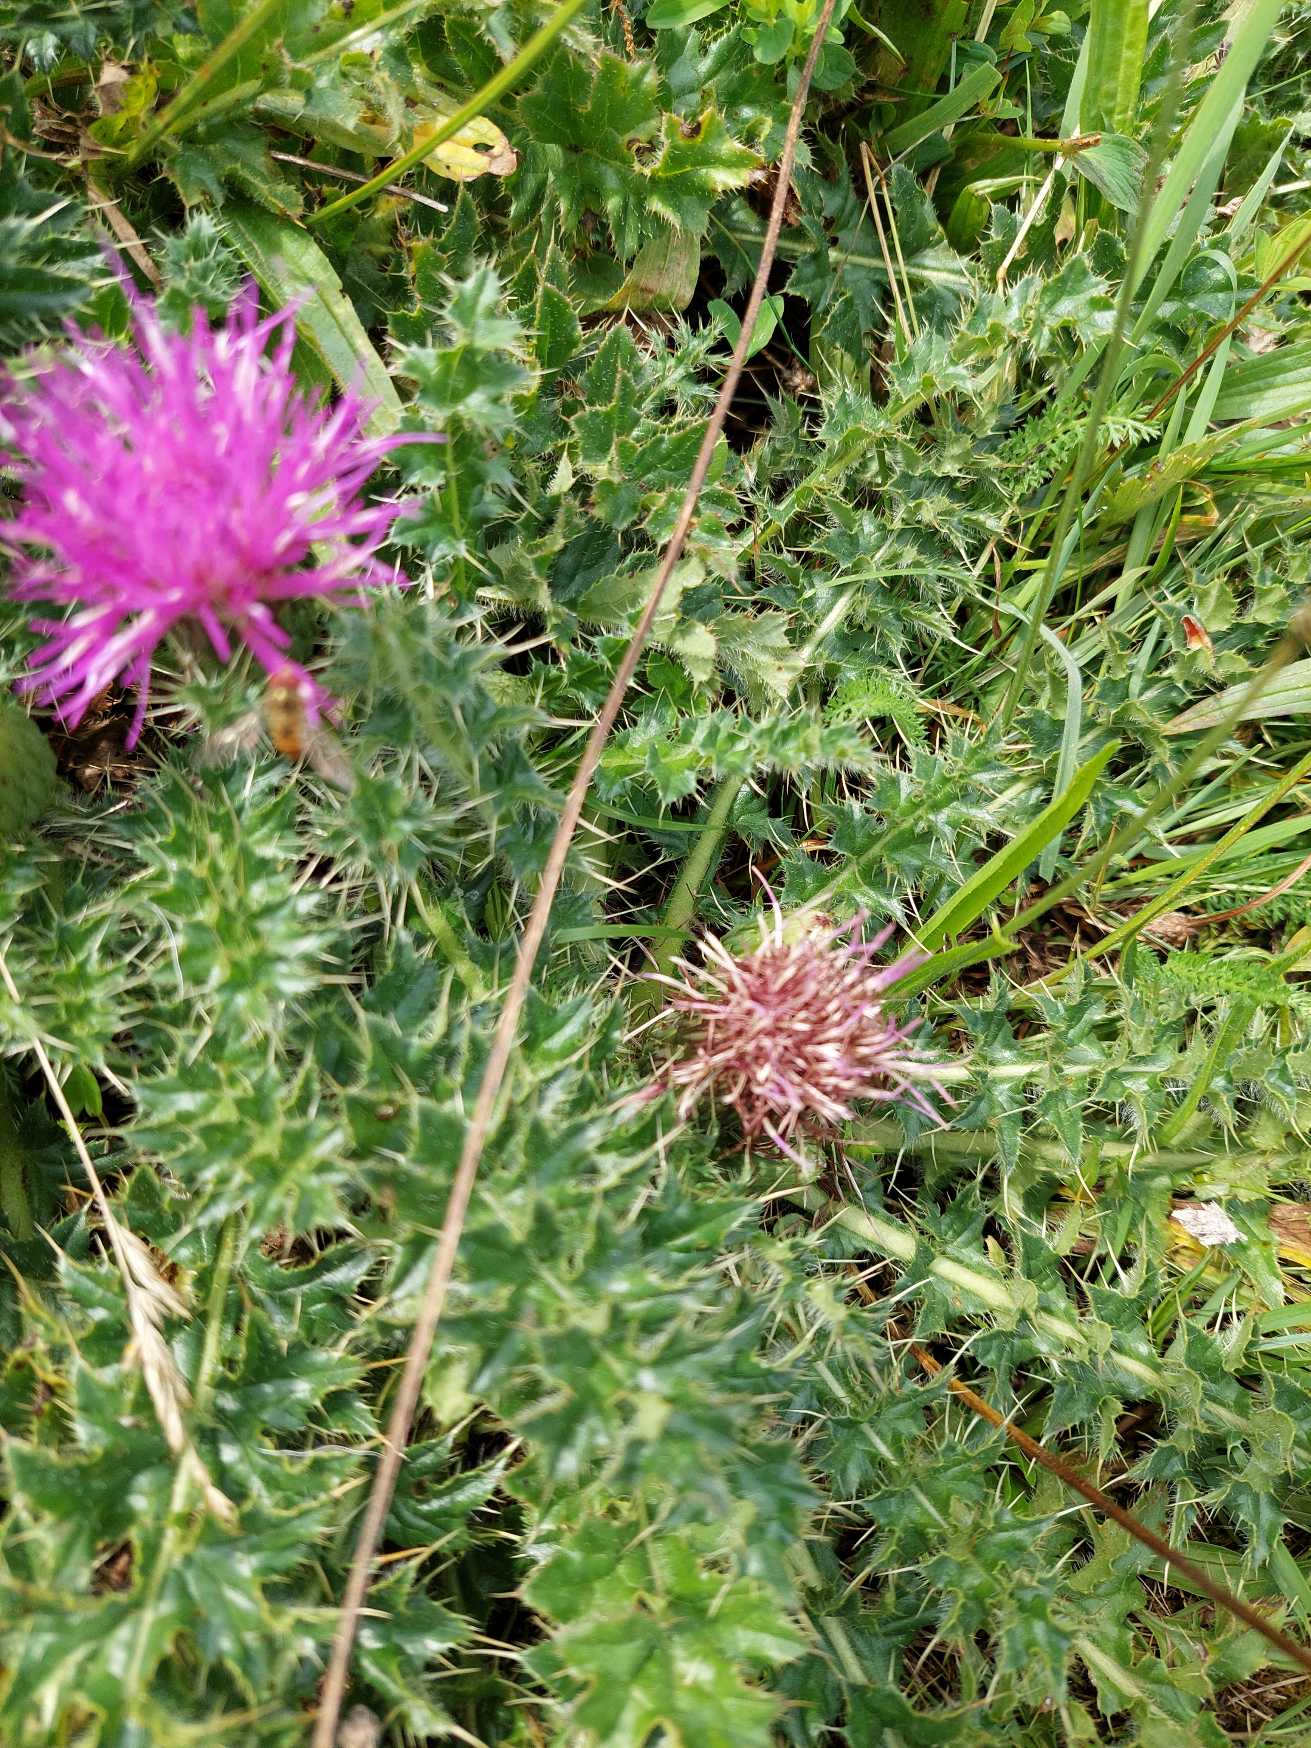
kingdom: Plantae
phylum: Tracheophyta
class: Magnoliopsida
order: Asterales
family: Asteraceae
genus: Cirsium
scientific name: Cirsium acaule
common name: Lav tidsel
